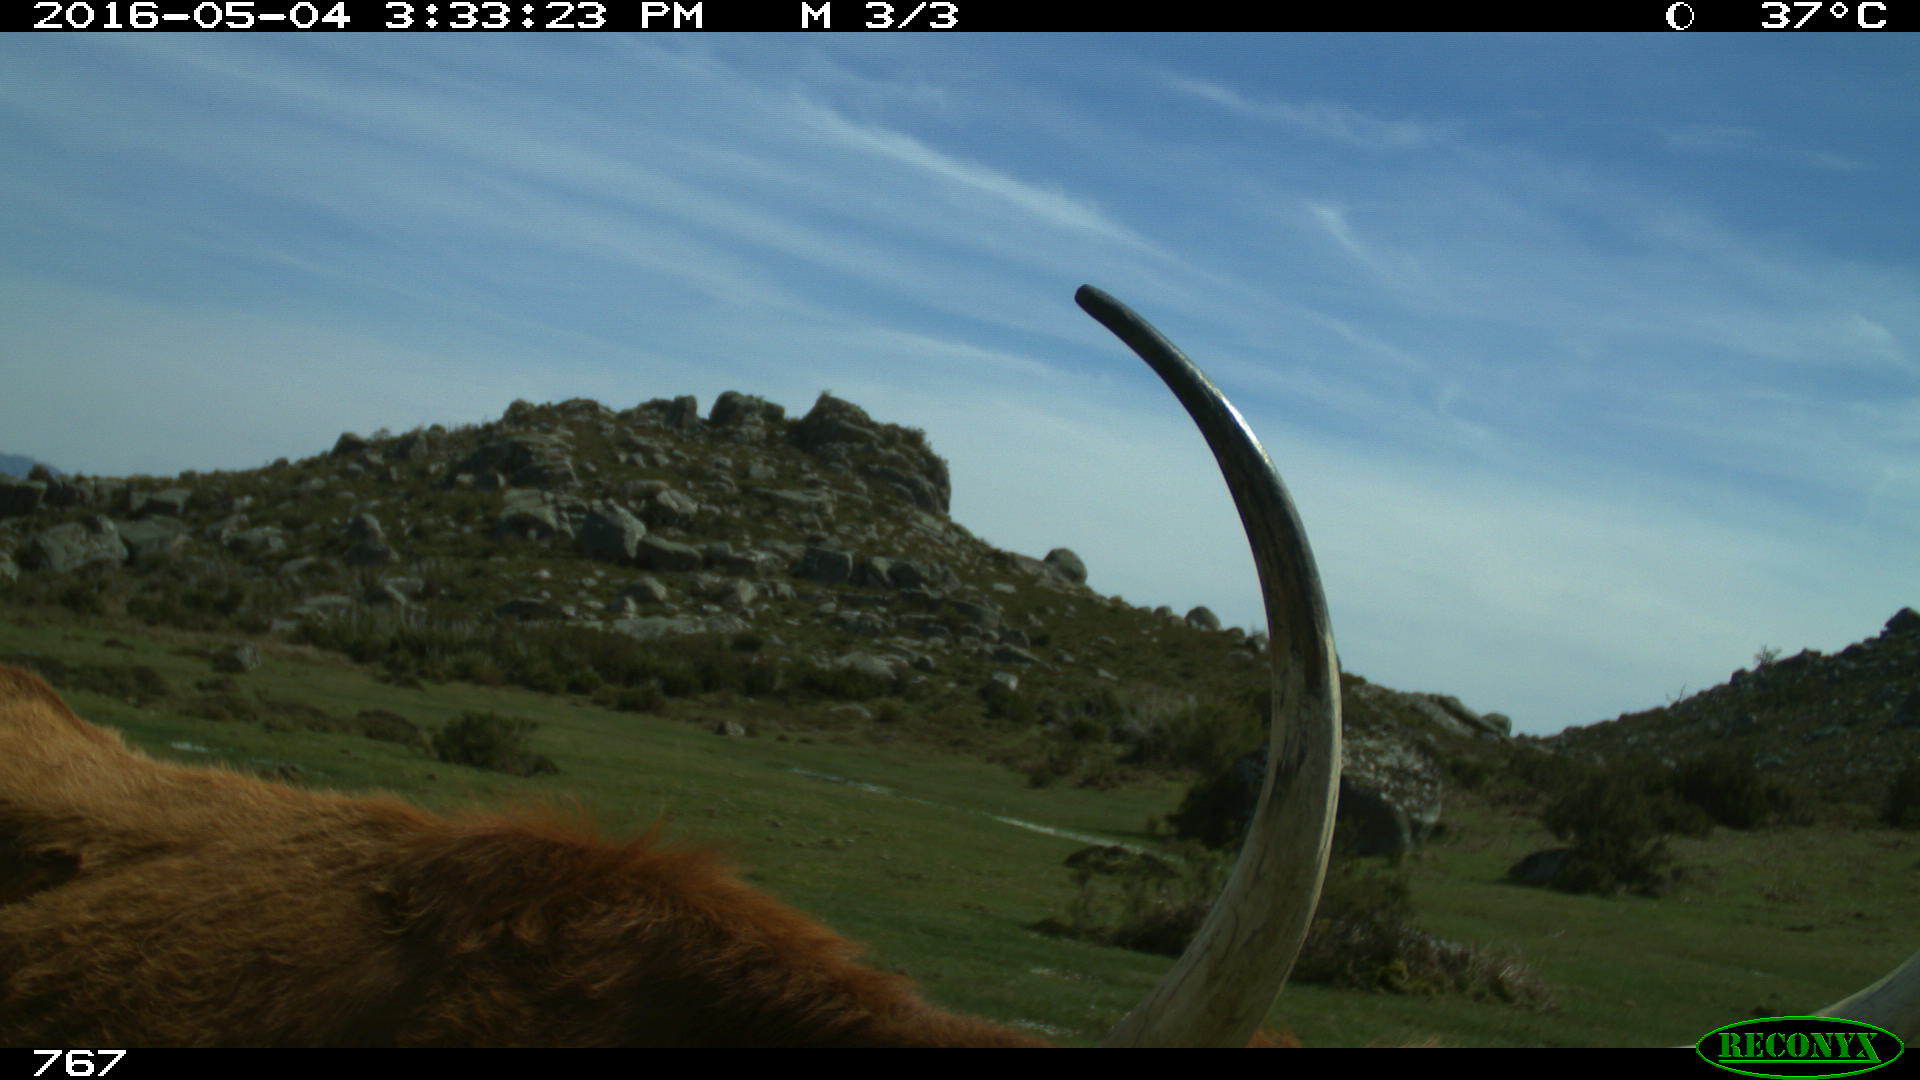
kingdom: Animalia
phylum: Chordata
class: Mammalia
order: Artiodactyla
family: Bovidae
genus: Bos
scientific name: Bos taurus
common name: Domesticated cattle
